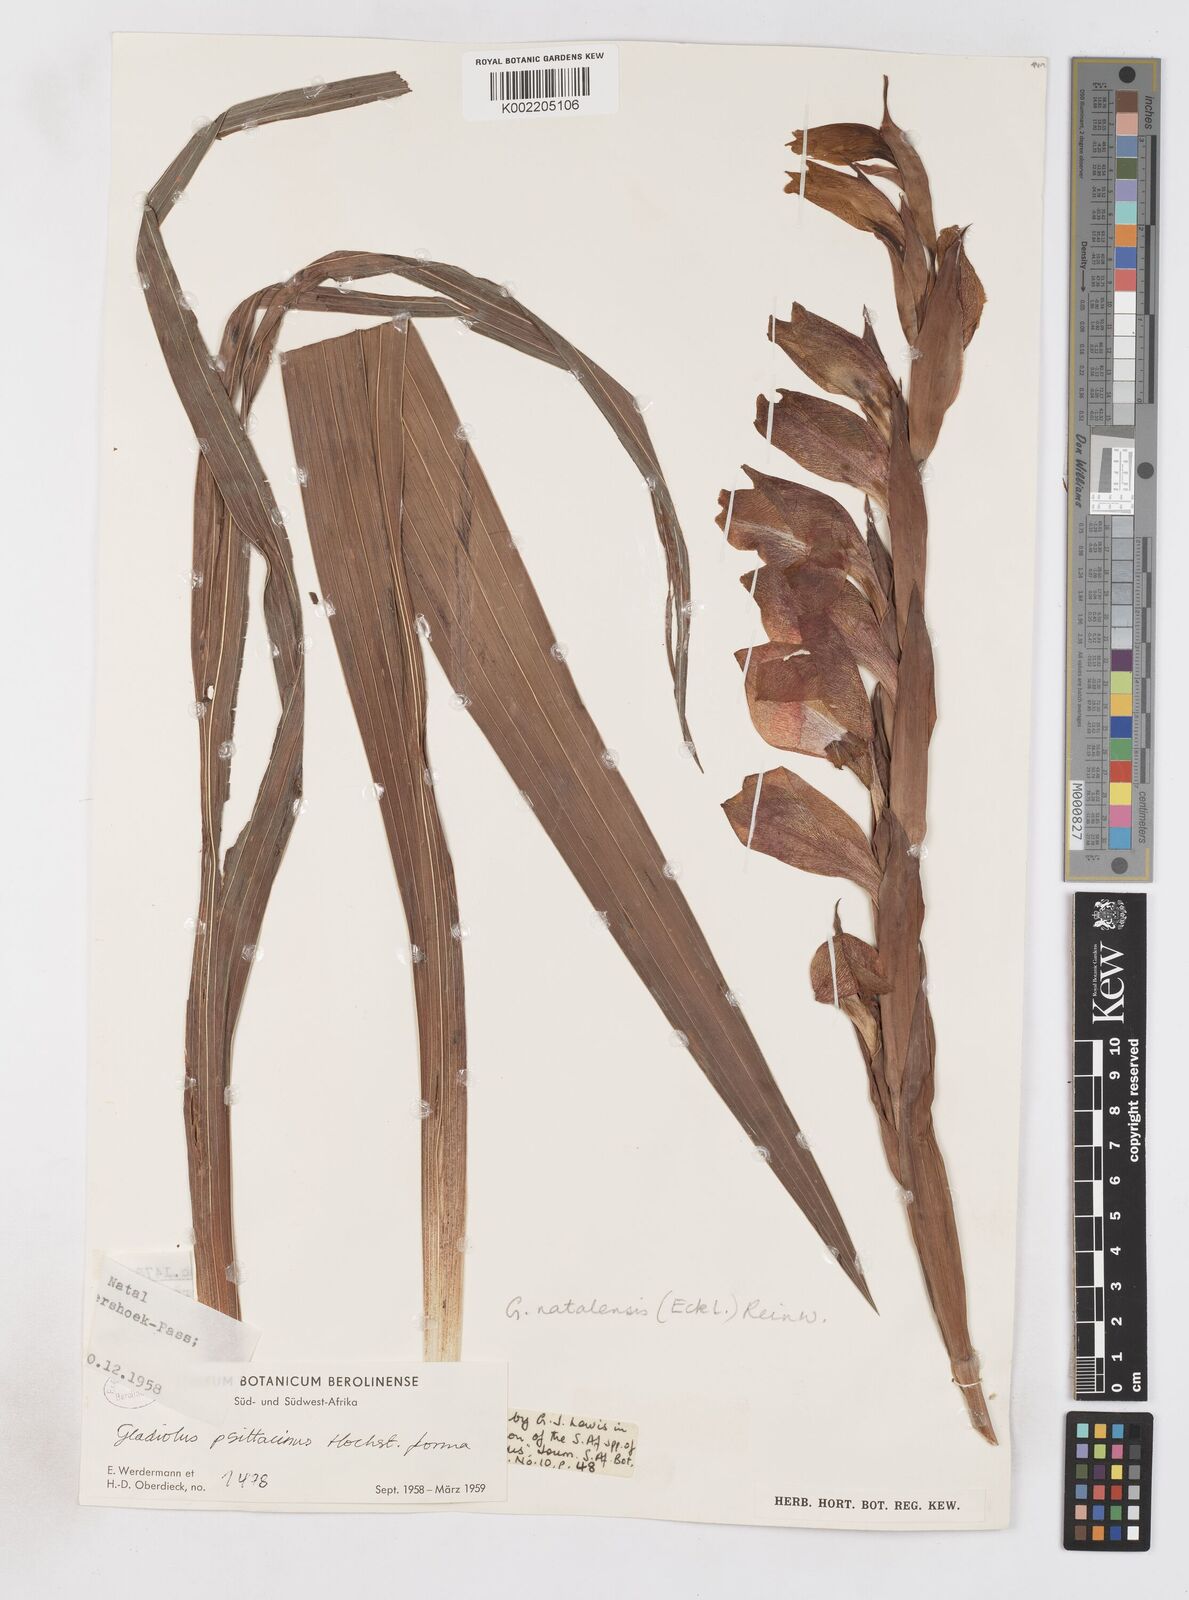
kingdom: Plantae
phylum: Tracheophyta
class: Liliopsida
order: Asparagales
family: Iridaceae
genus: Gladiolus
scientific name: Gladiolus dalenii
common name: Cornflag
